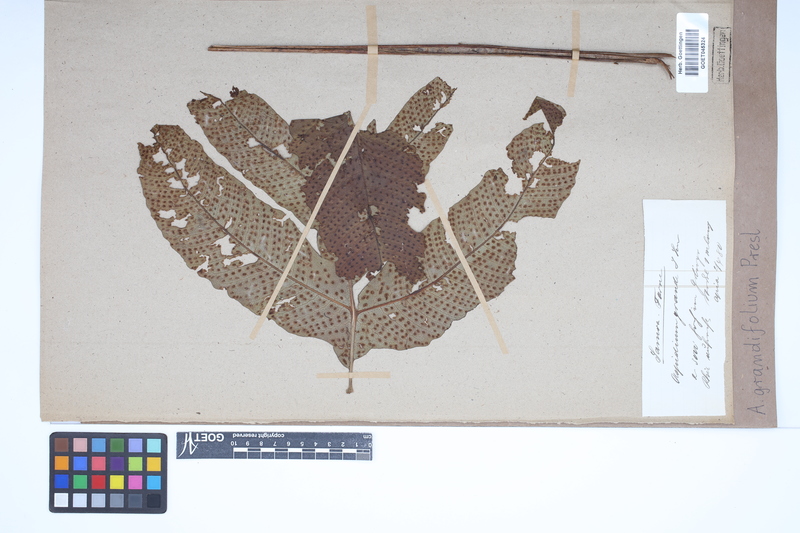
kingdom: Plantae
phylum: Tracheophyta
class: Polypodiopsida
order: Polypodiales
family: Tectariaceae
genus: Tectaria
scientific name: Tectaria crenata
